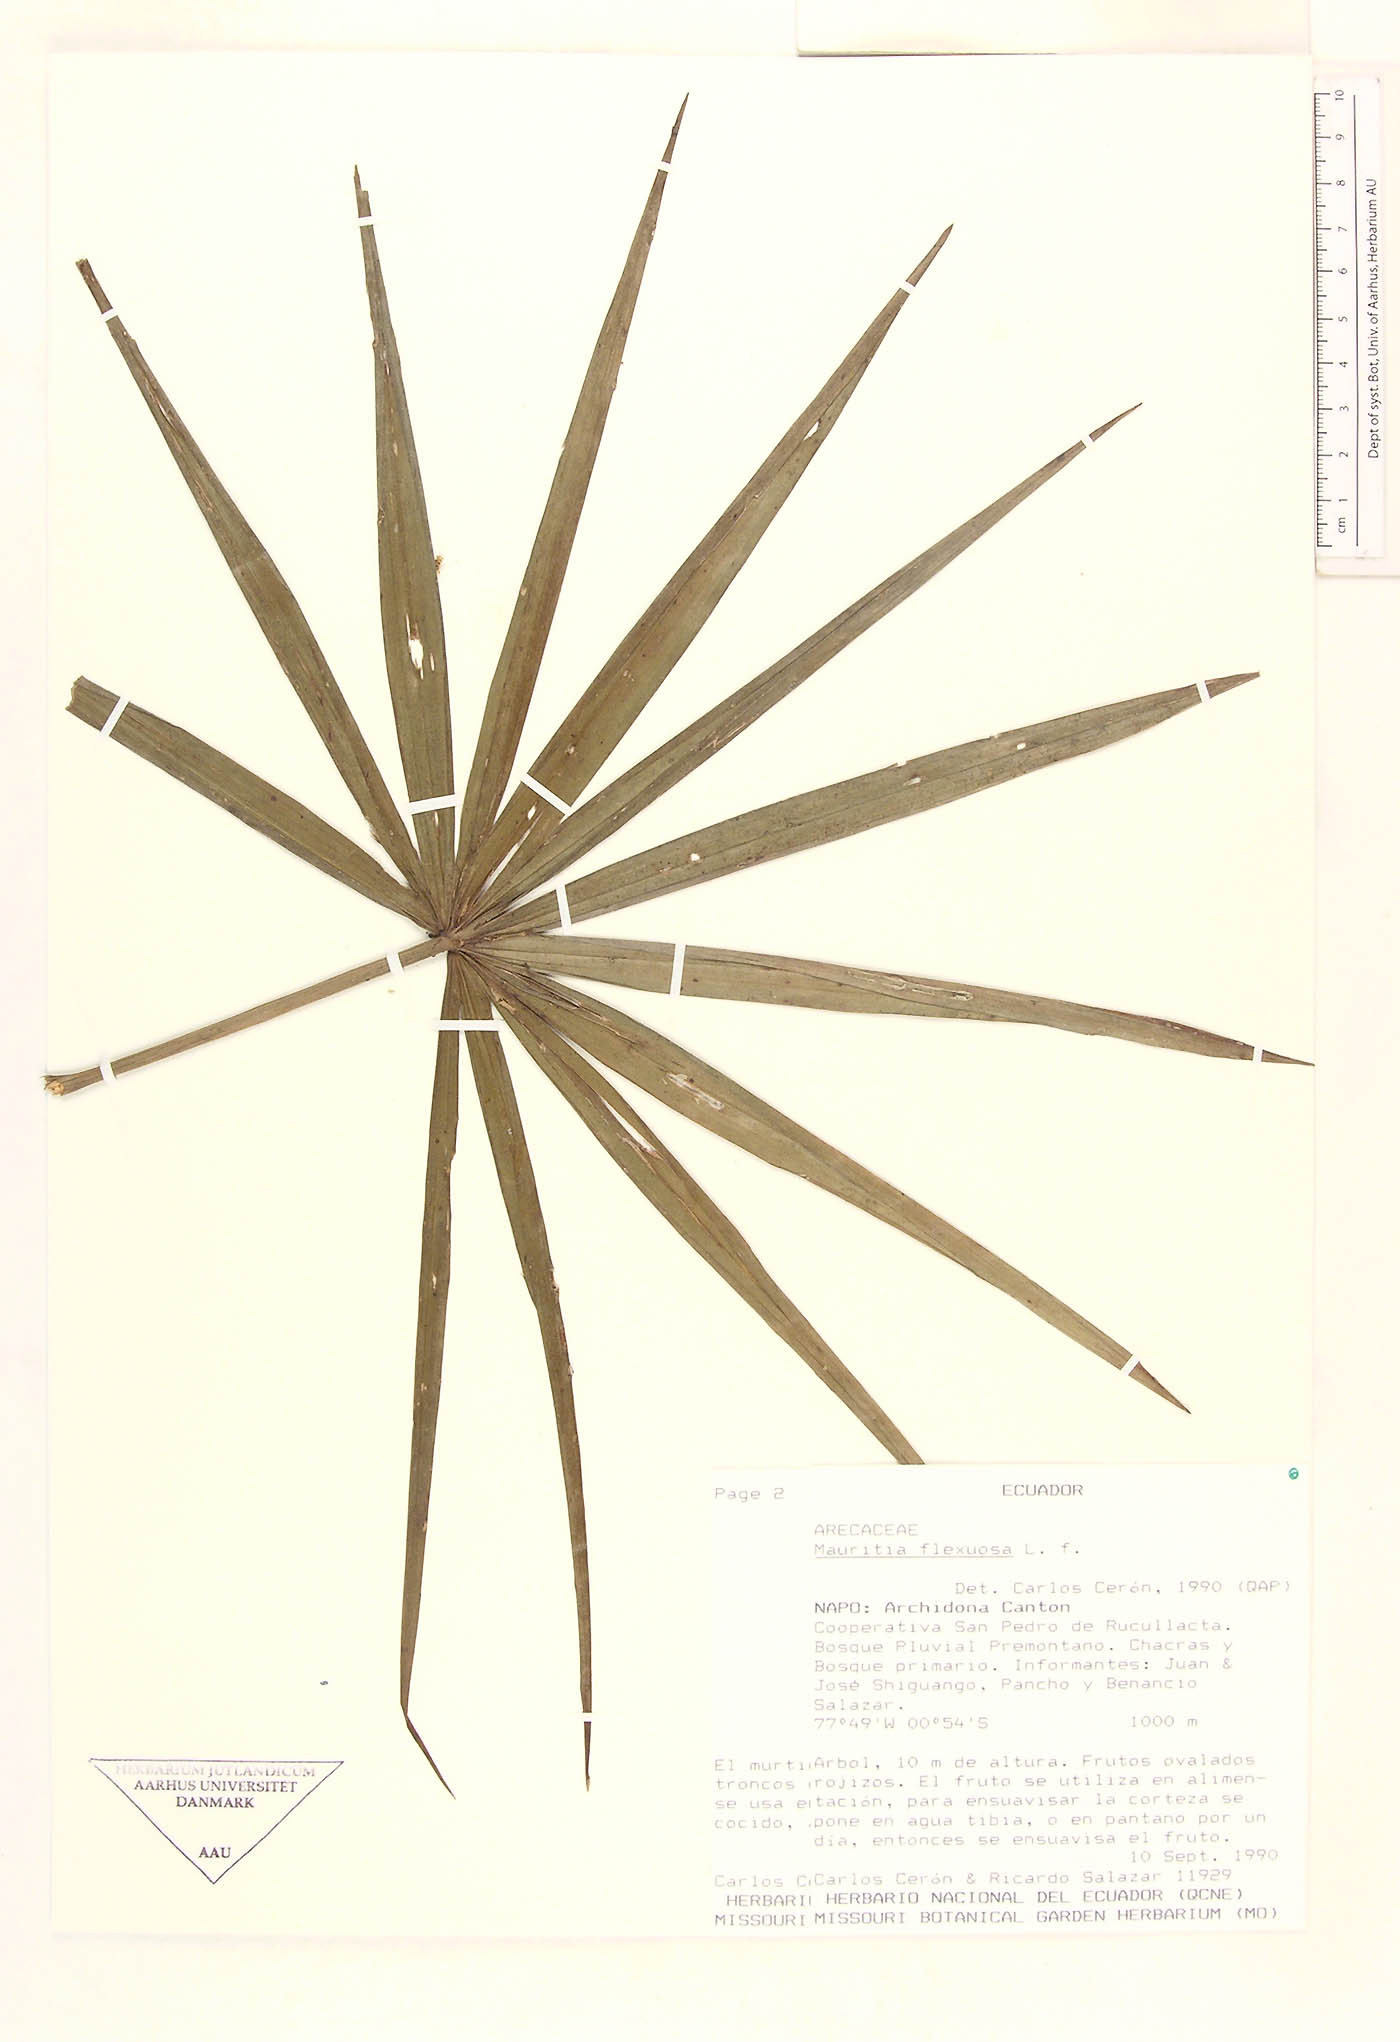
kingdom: Plantae
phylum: Tracheophyta
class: Liliopsida
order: Arecales
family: Arecaceae
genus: Mauritia
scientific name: Mauritia flexuosa
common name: Tree-of-life
